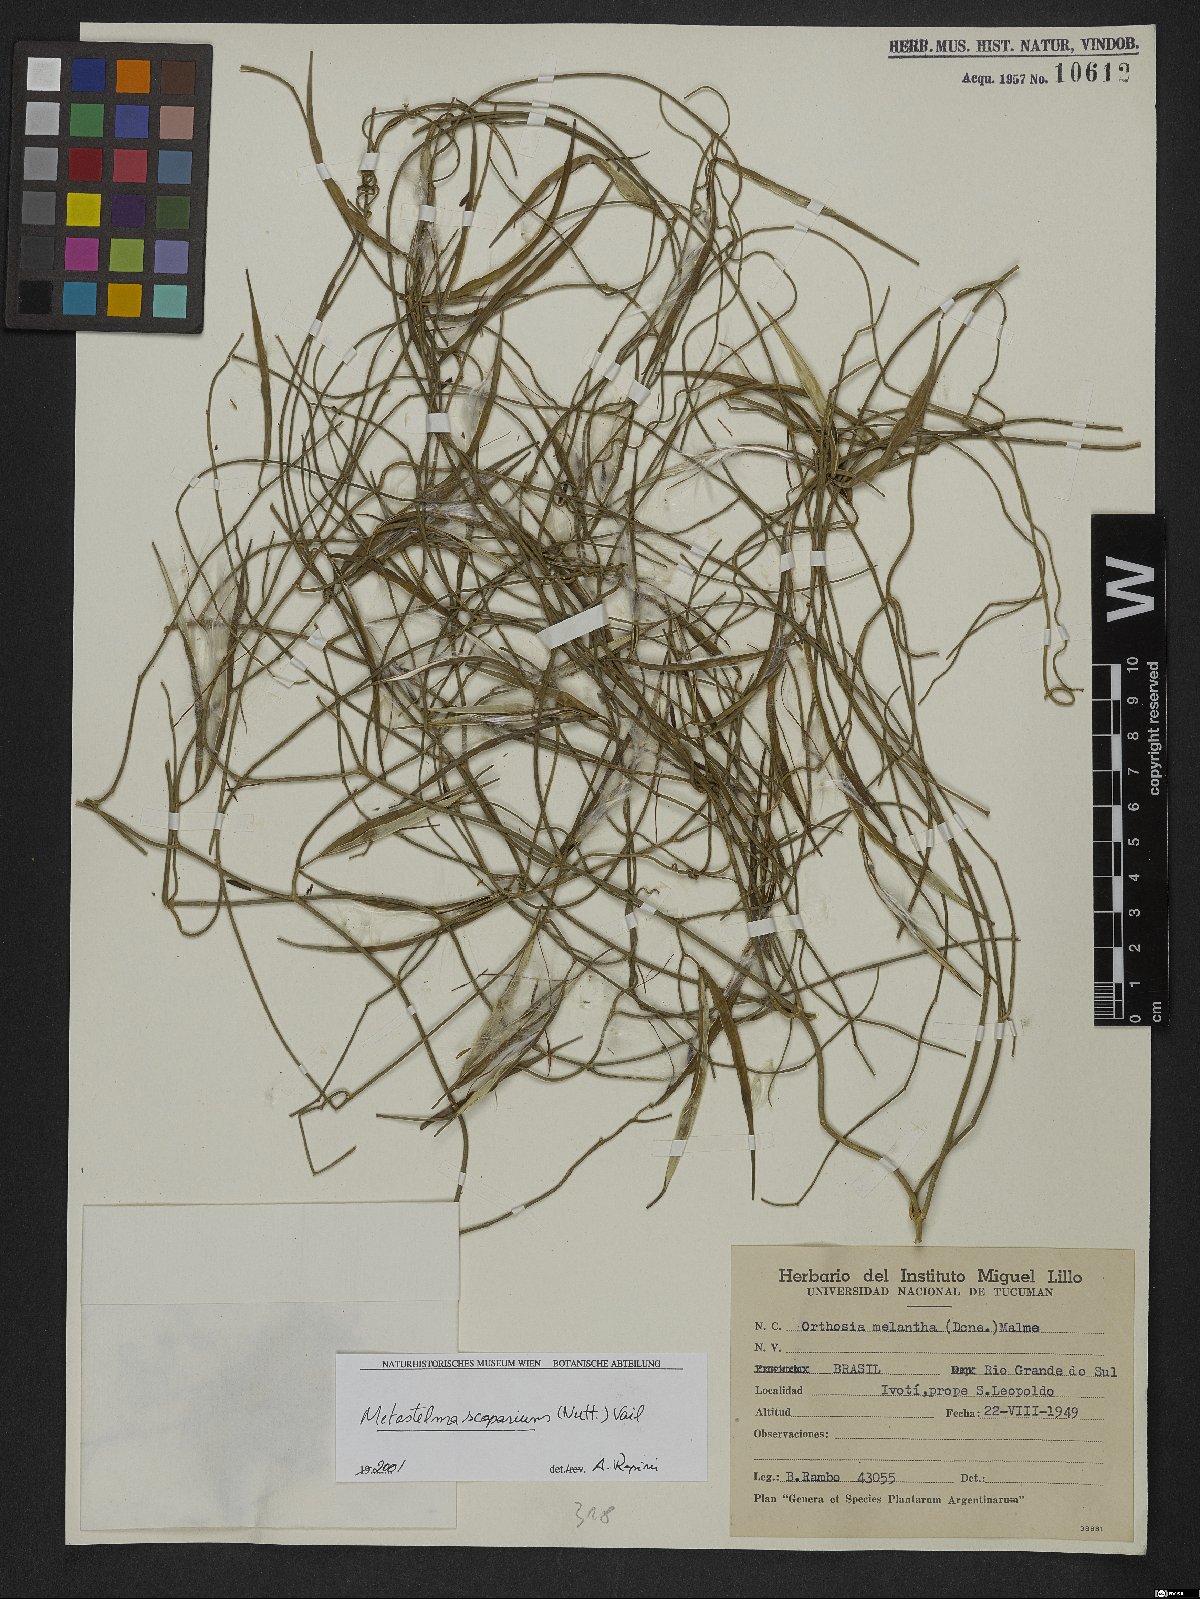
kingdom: Plantae
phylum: Tracheophyta
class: Magnoliopsida
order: Gentianales
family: Apocynaceae
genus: Orthosia
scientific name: Orthosia scoparia
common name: Leafless swallow-wort
